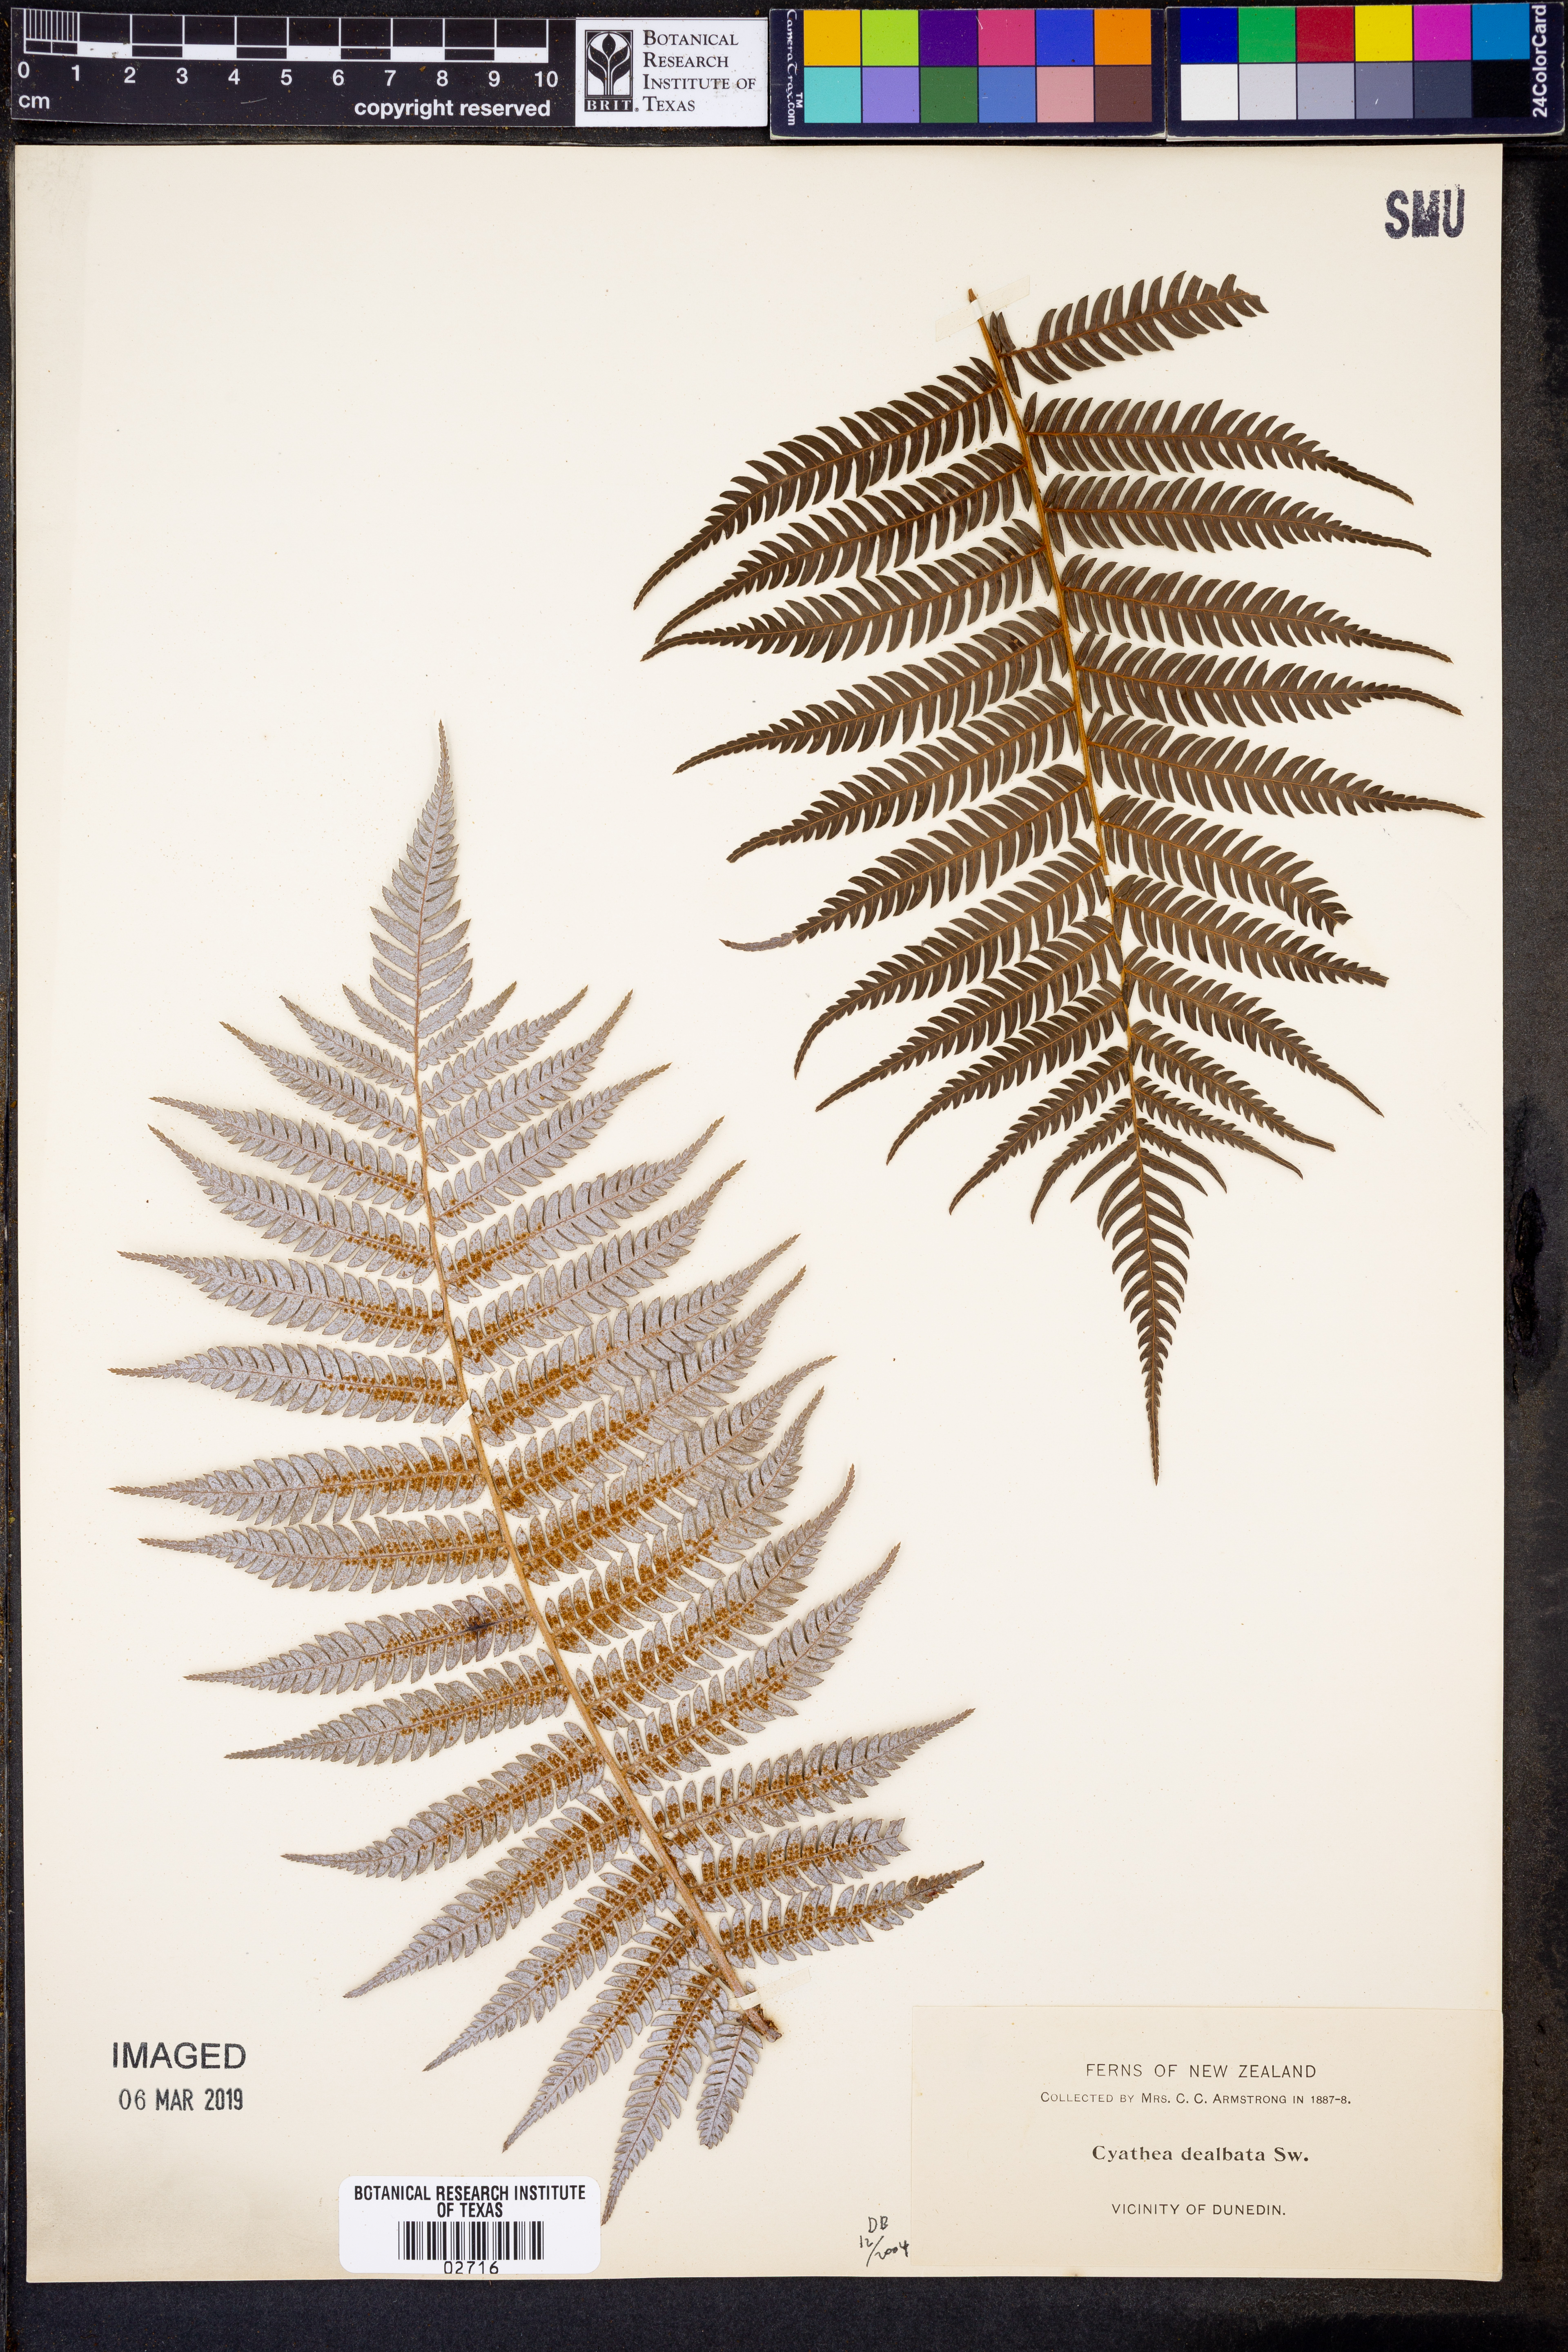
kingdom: Plantae
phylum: Tracheophyta
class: Polypodiopsida
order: Cyatheales
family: Cyatheaceae
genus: Alsophila
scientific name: Alsophila dealbata
